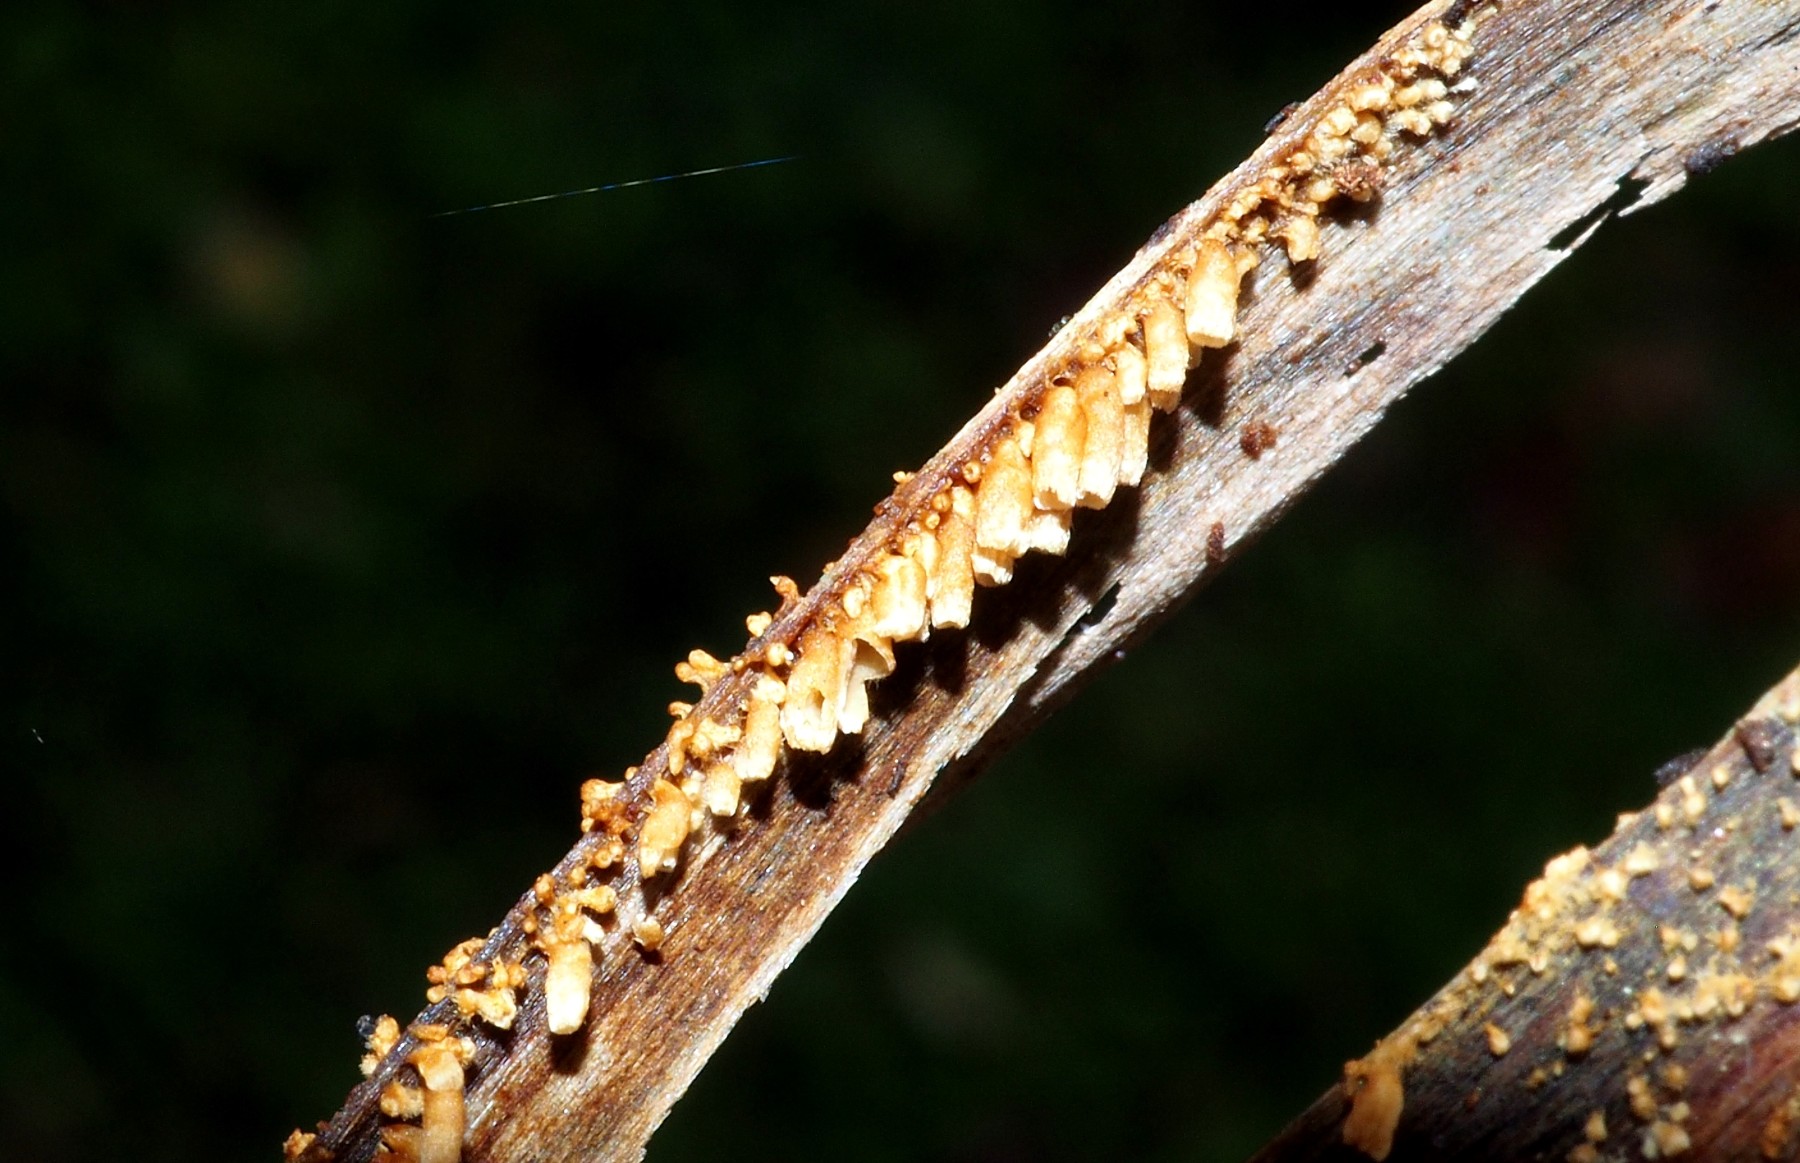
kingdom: Fungi
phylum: Basidiomycota
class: Agaricomycetes
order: Agaricales
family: Niaceae
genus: Woldmaria
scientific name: Woldmaria filicina
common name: bregnerør
